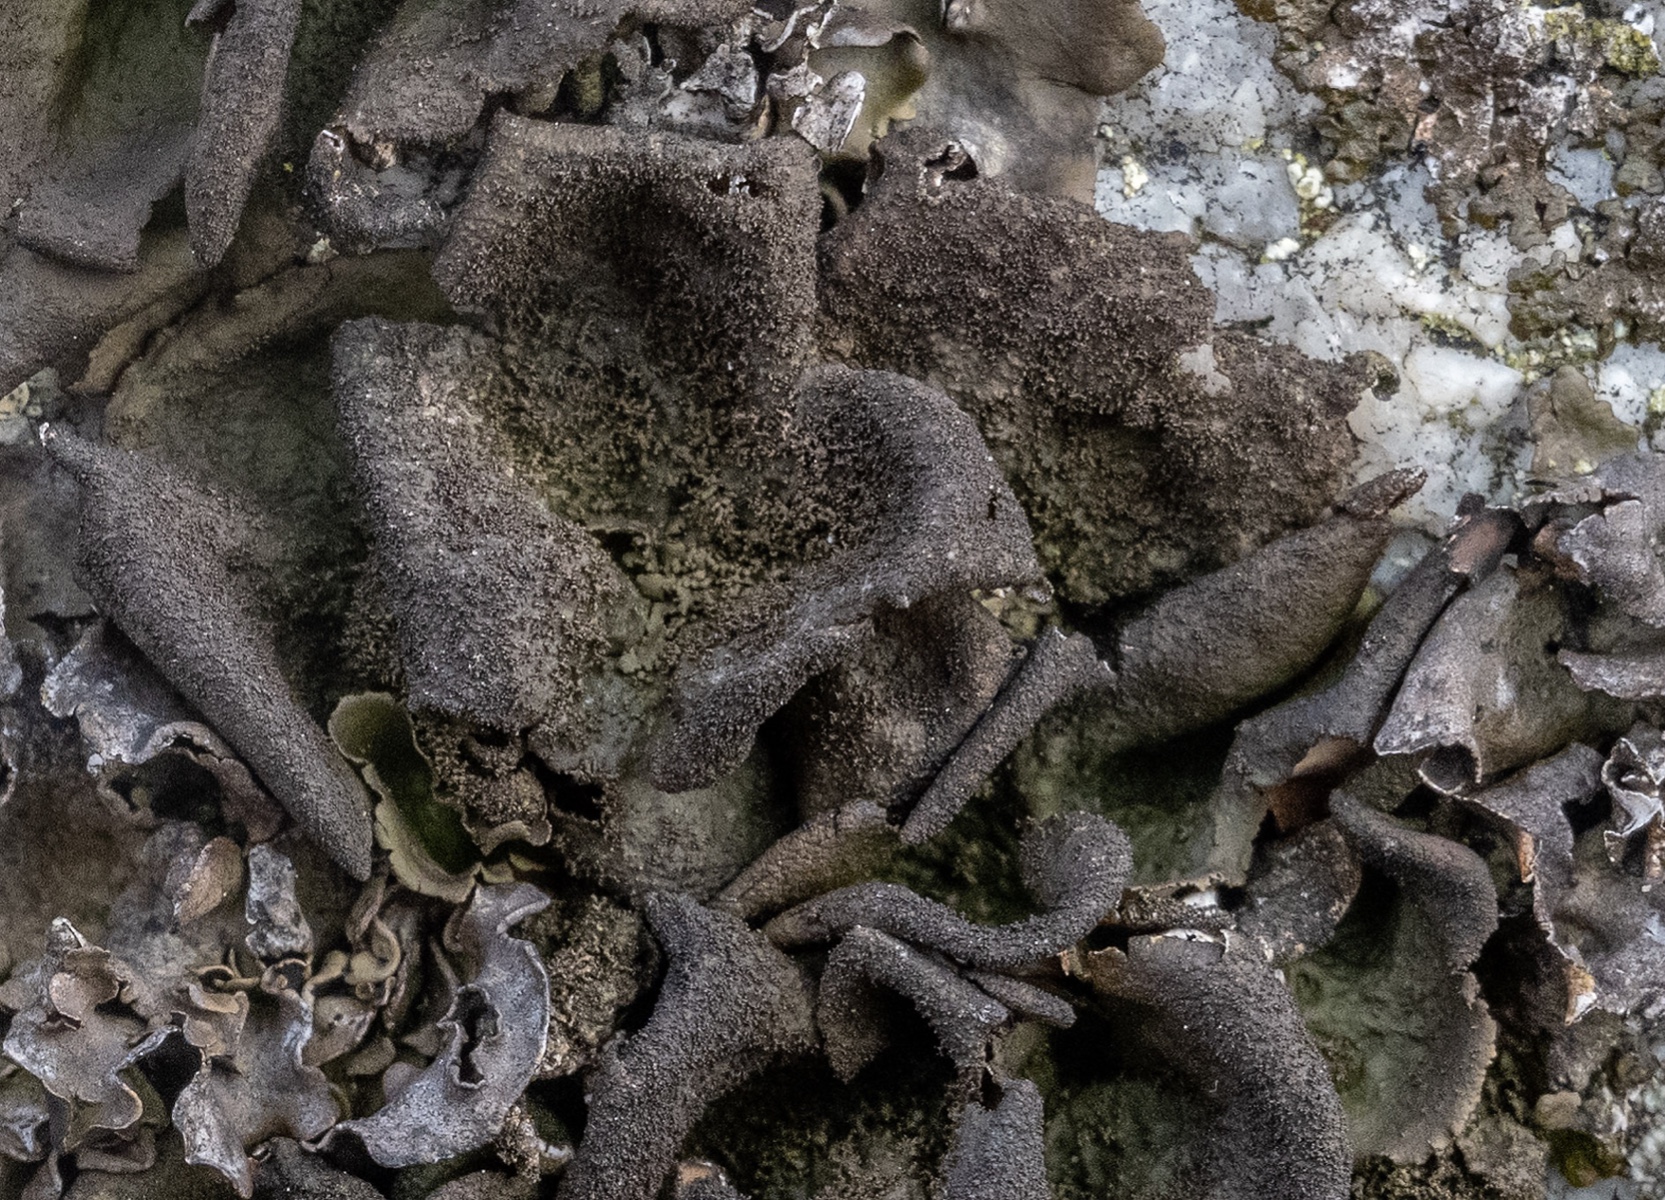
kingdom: Fungi
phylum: Ascomycota
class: Lecanoromycetes
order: Umbilicariales
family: Umbilicariaceae
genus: Umbilicaria
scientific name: Umbilicaria deusta
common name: kliddet navlelav
